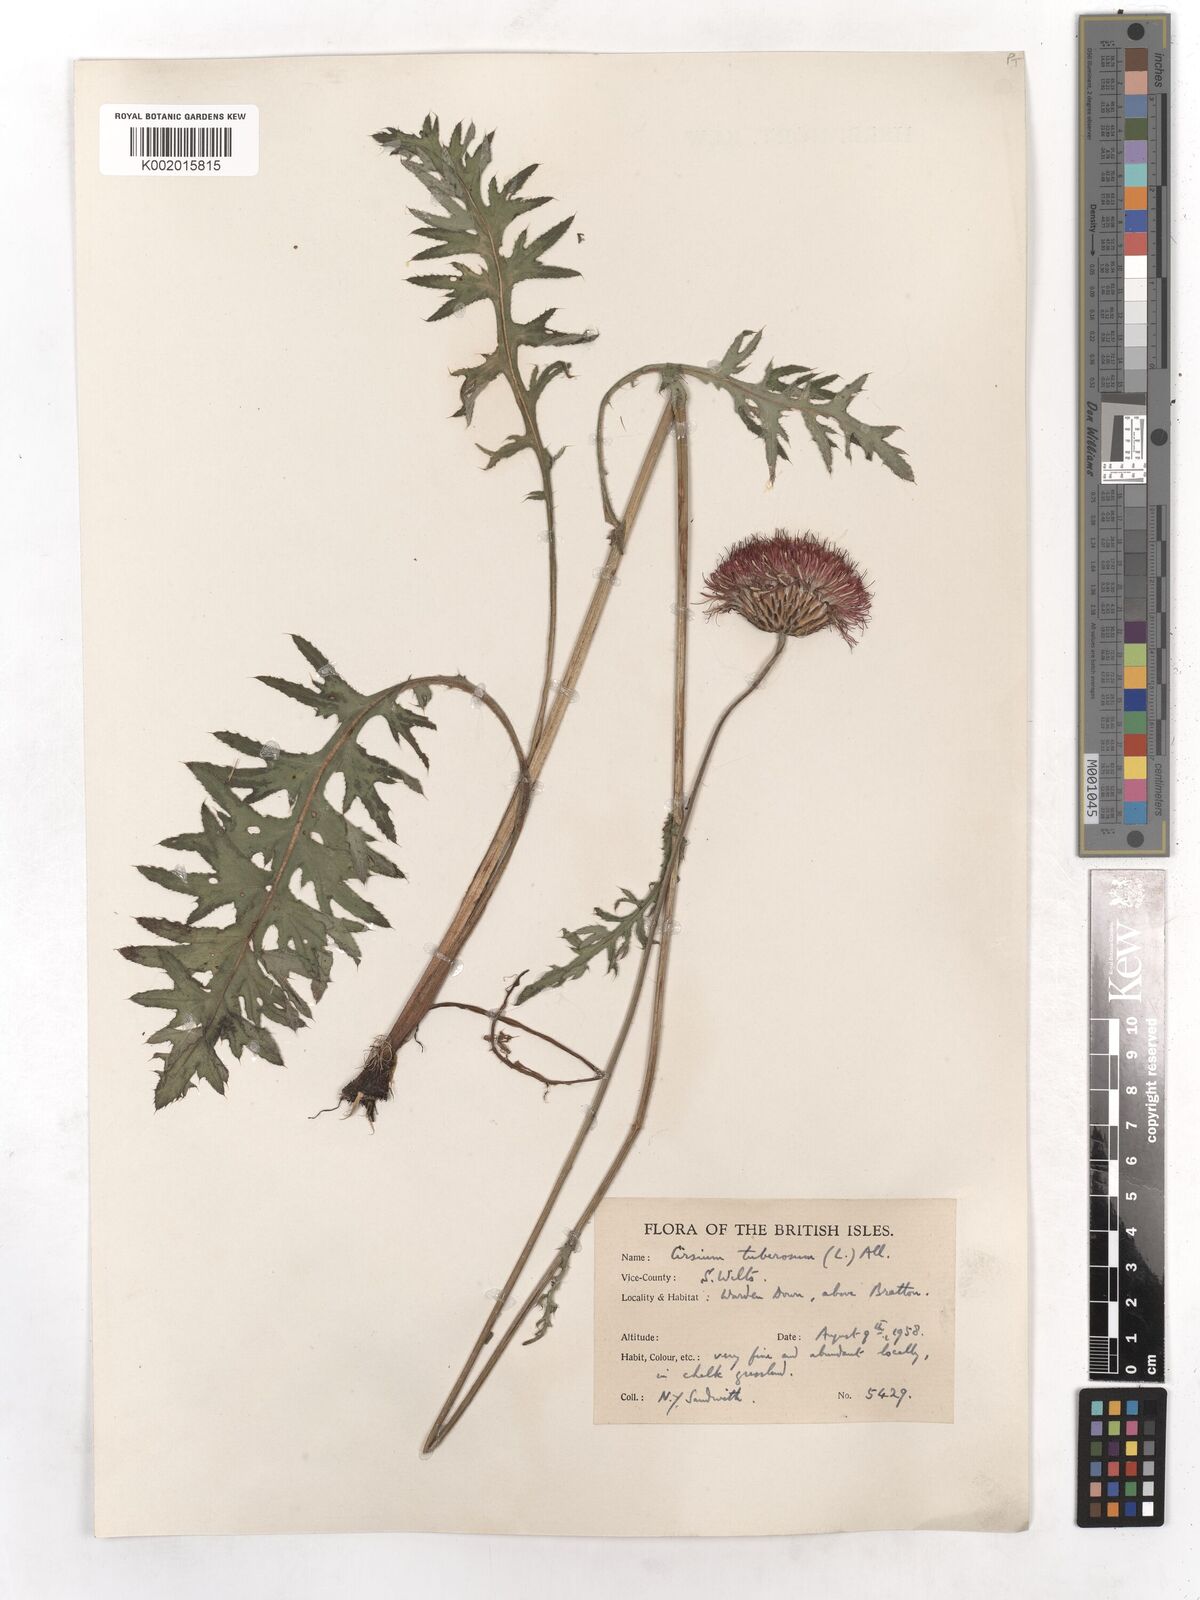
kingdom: Plantae
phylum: Tracheophyta
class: Magnoliopsida
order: Asterales
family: Asteraceae
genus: Cirsium
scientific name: Cirsium
